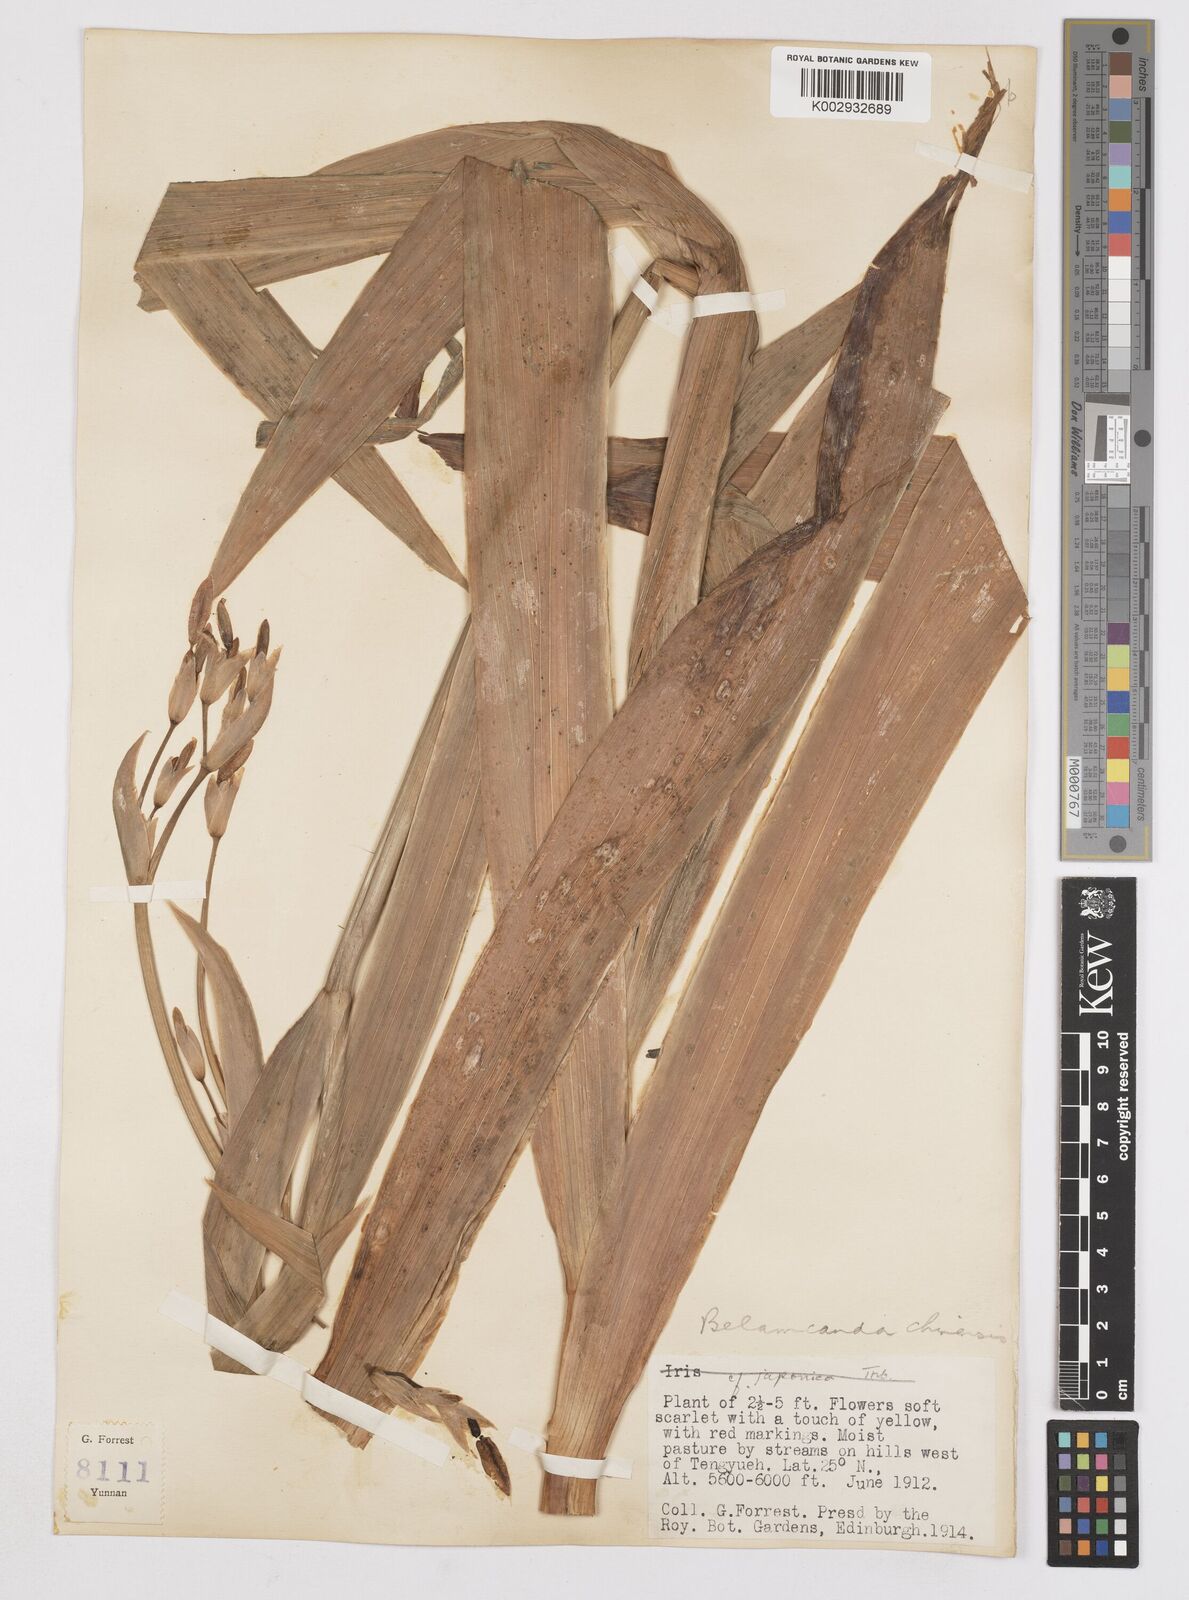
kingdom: Plantae
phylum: Tracheophyta
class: Liliopsida
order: Asparagales
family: Iridaceae
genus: Iris
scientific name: Iris
